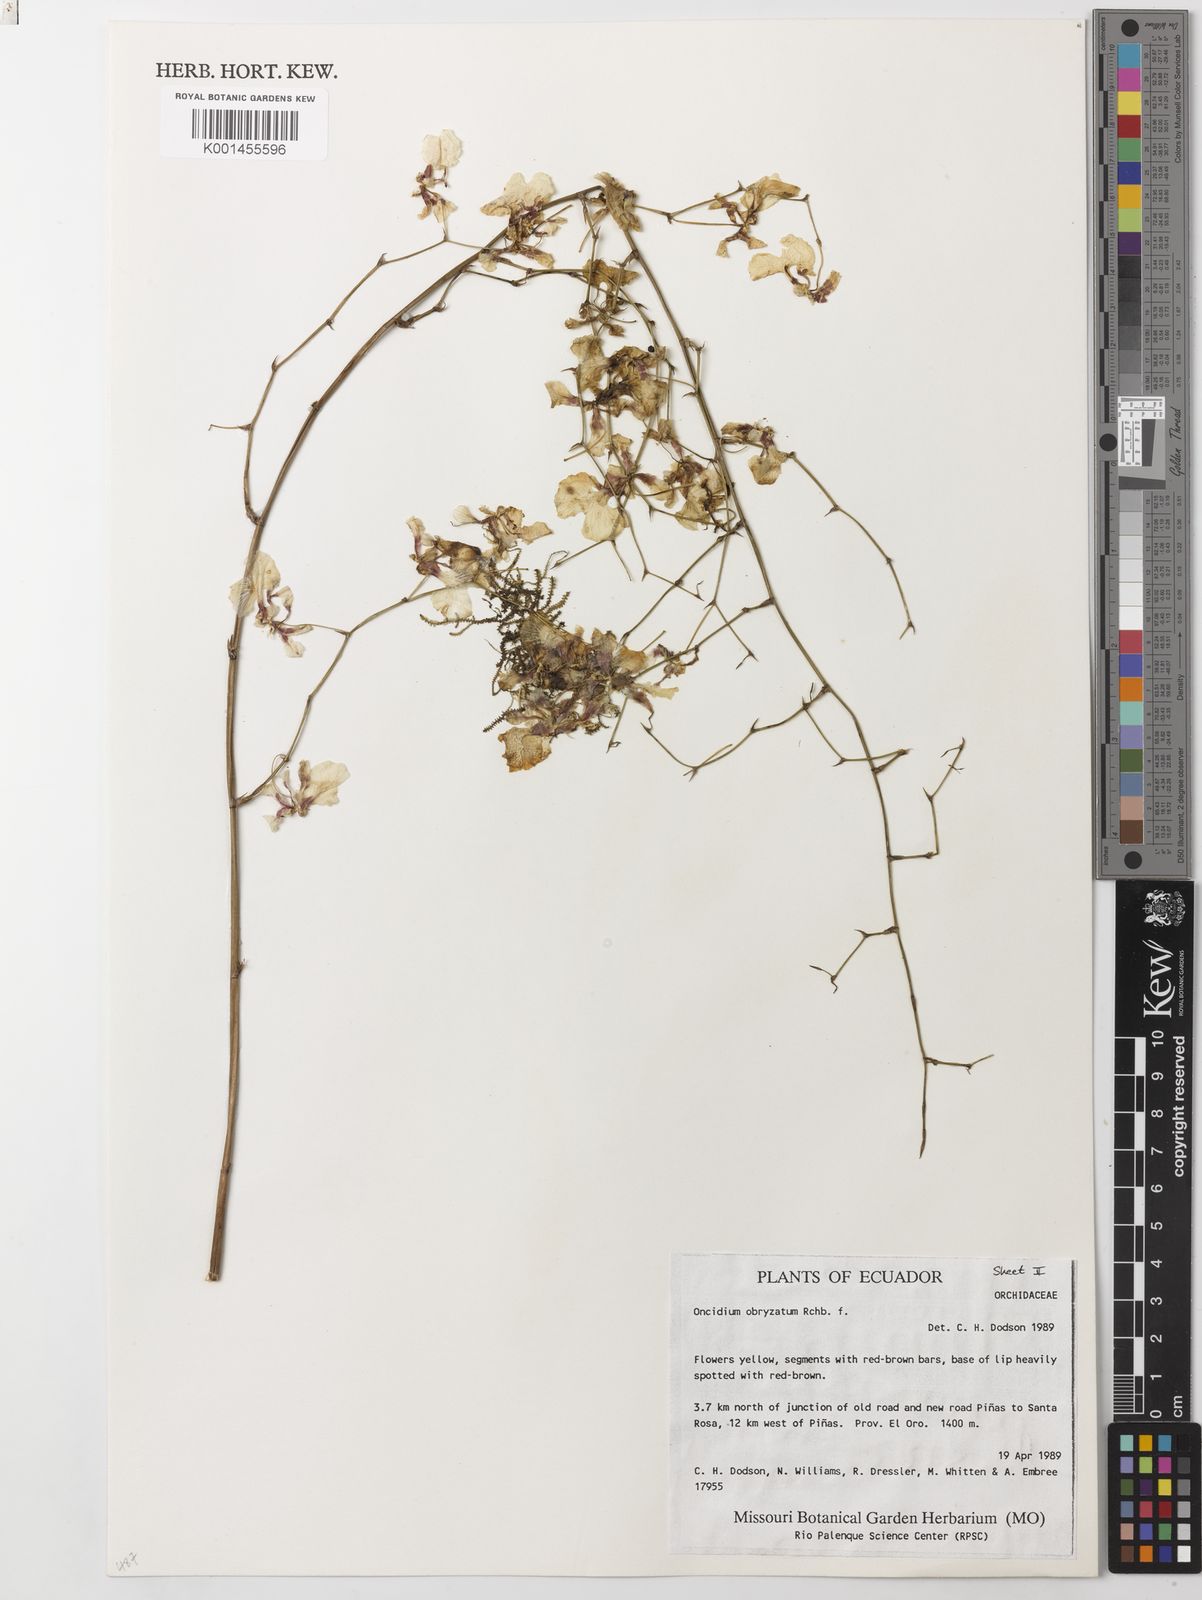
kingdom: Plantae
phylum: Tracheophyta
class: Liliopsida
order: Asparagales
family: Orchidaceae
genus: Oncidium
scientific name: Oncidium obryzatum
